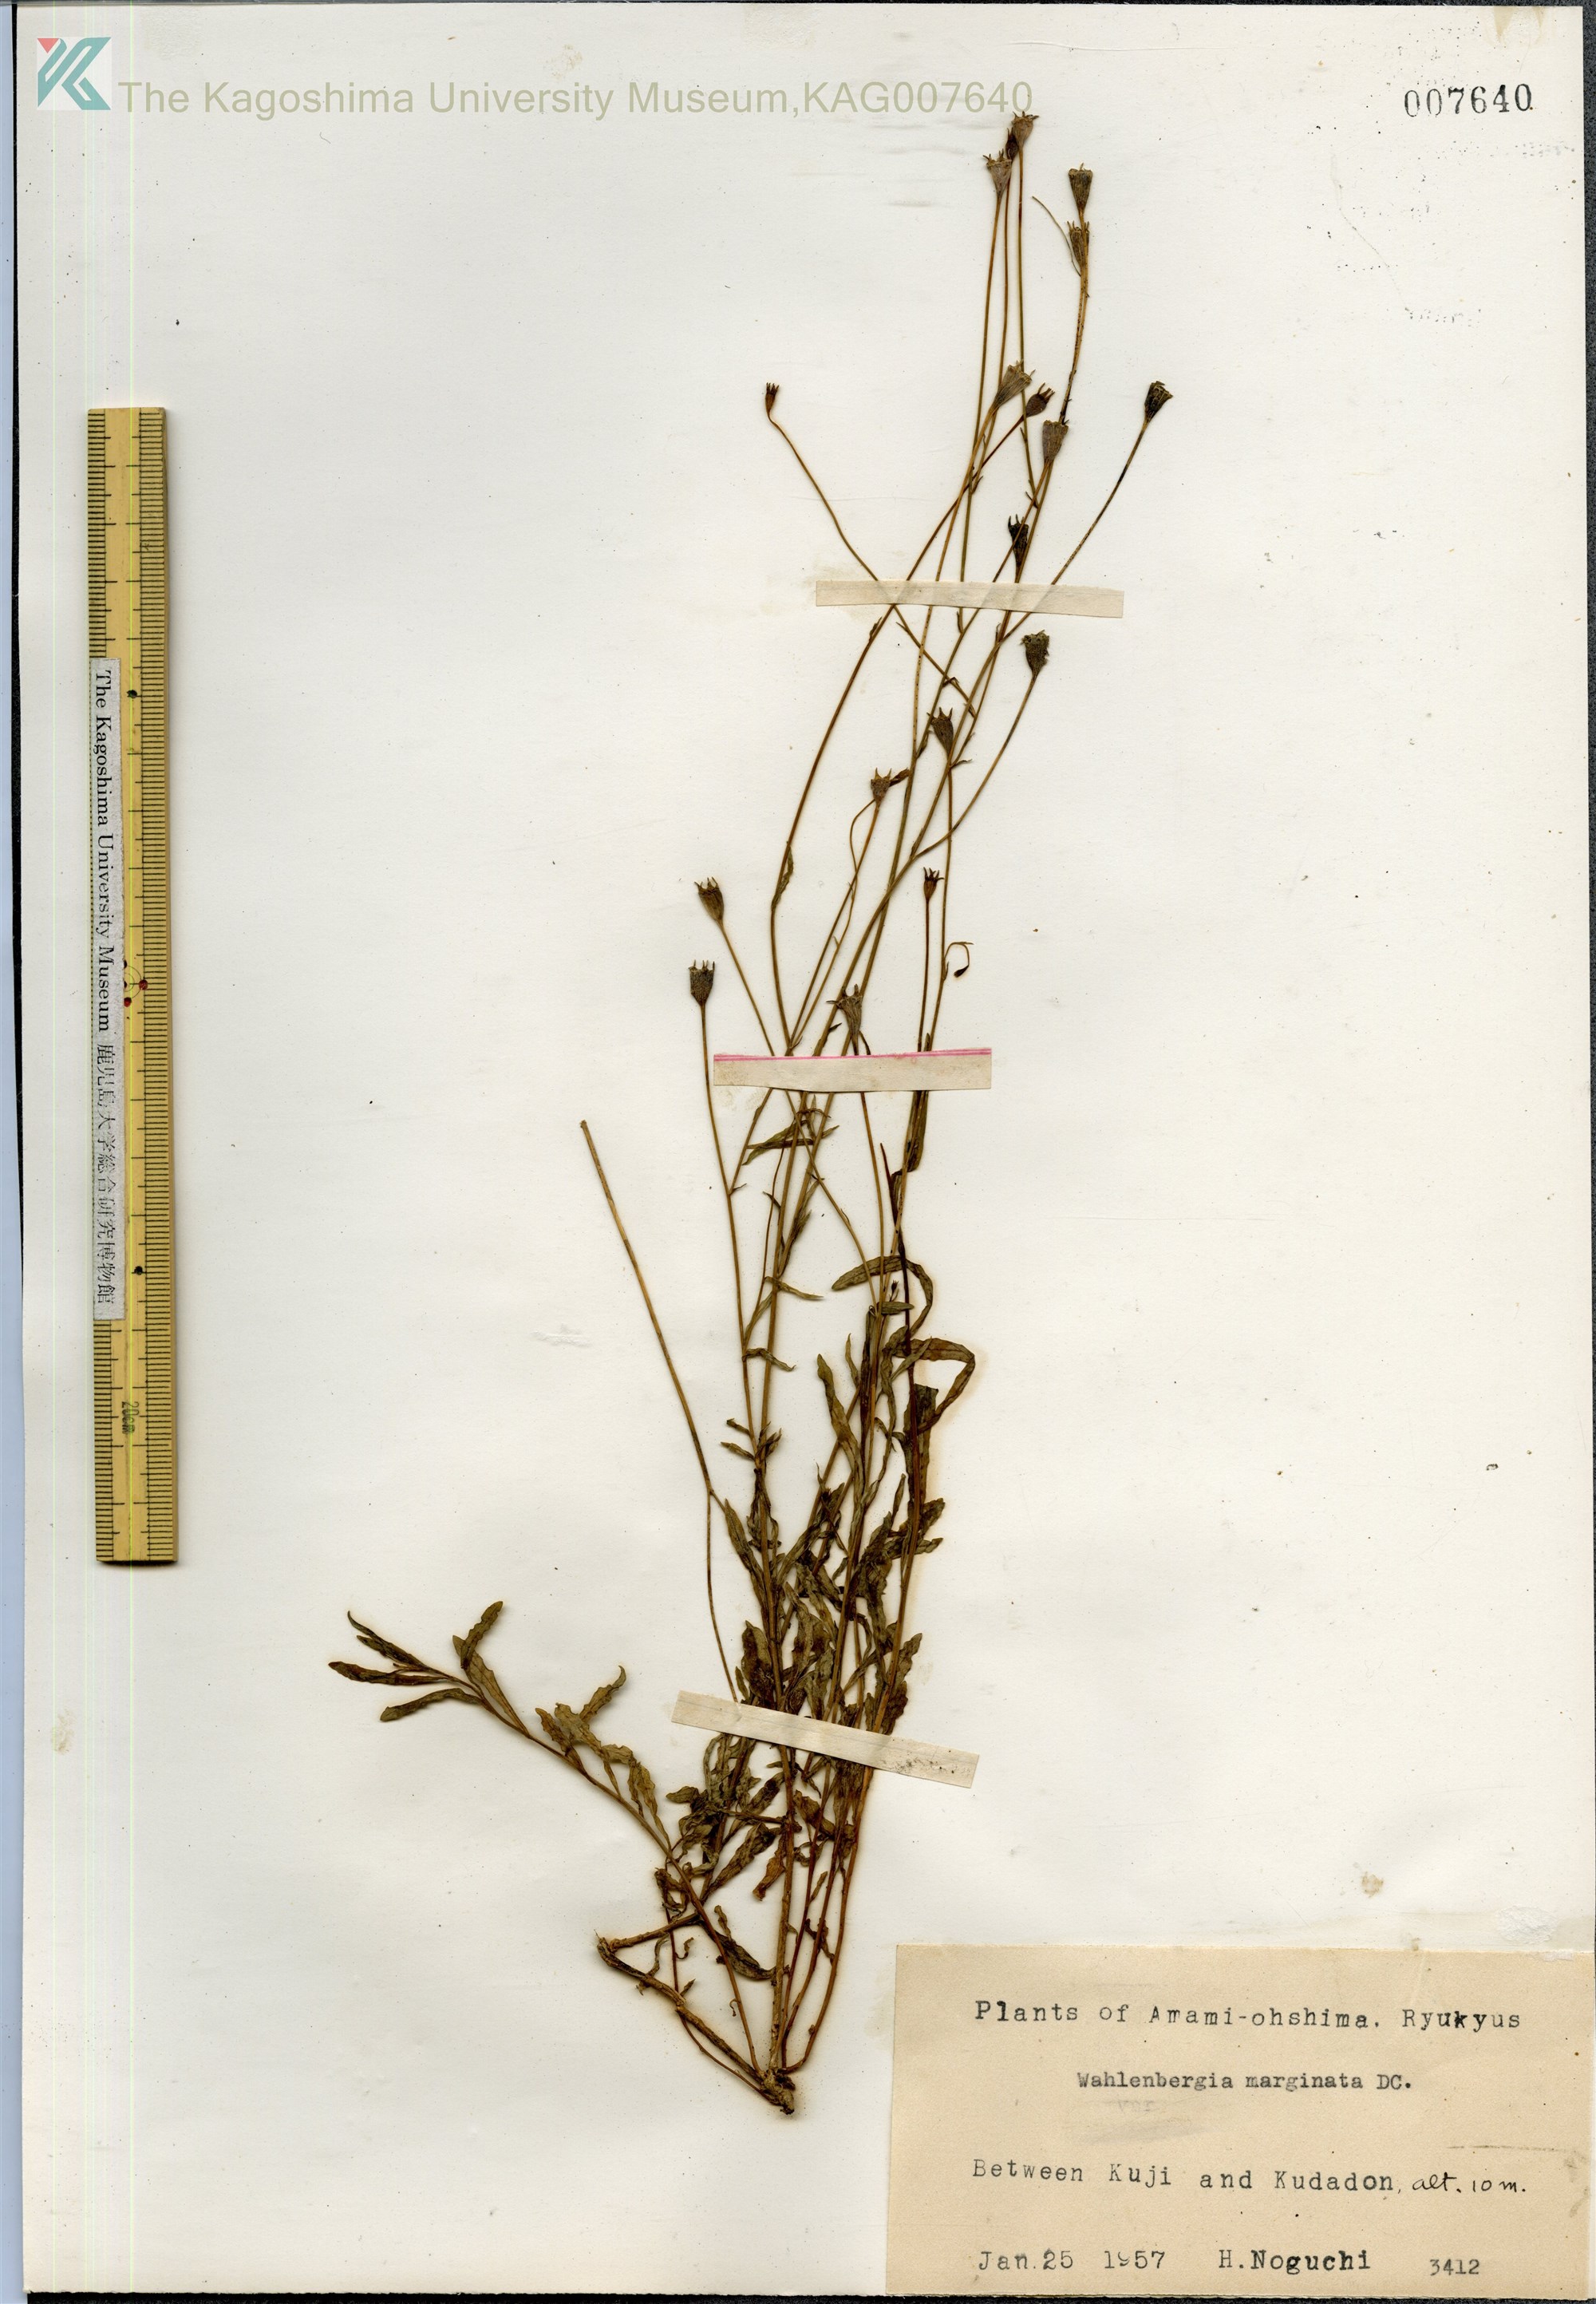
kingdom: Plantae
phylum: Tracheophyta
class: Magnoliopsida
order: Asterales
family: Campanulaceae
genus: Wahlenbergia
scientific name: Wahlenbergia marginata
